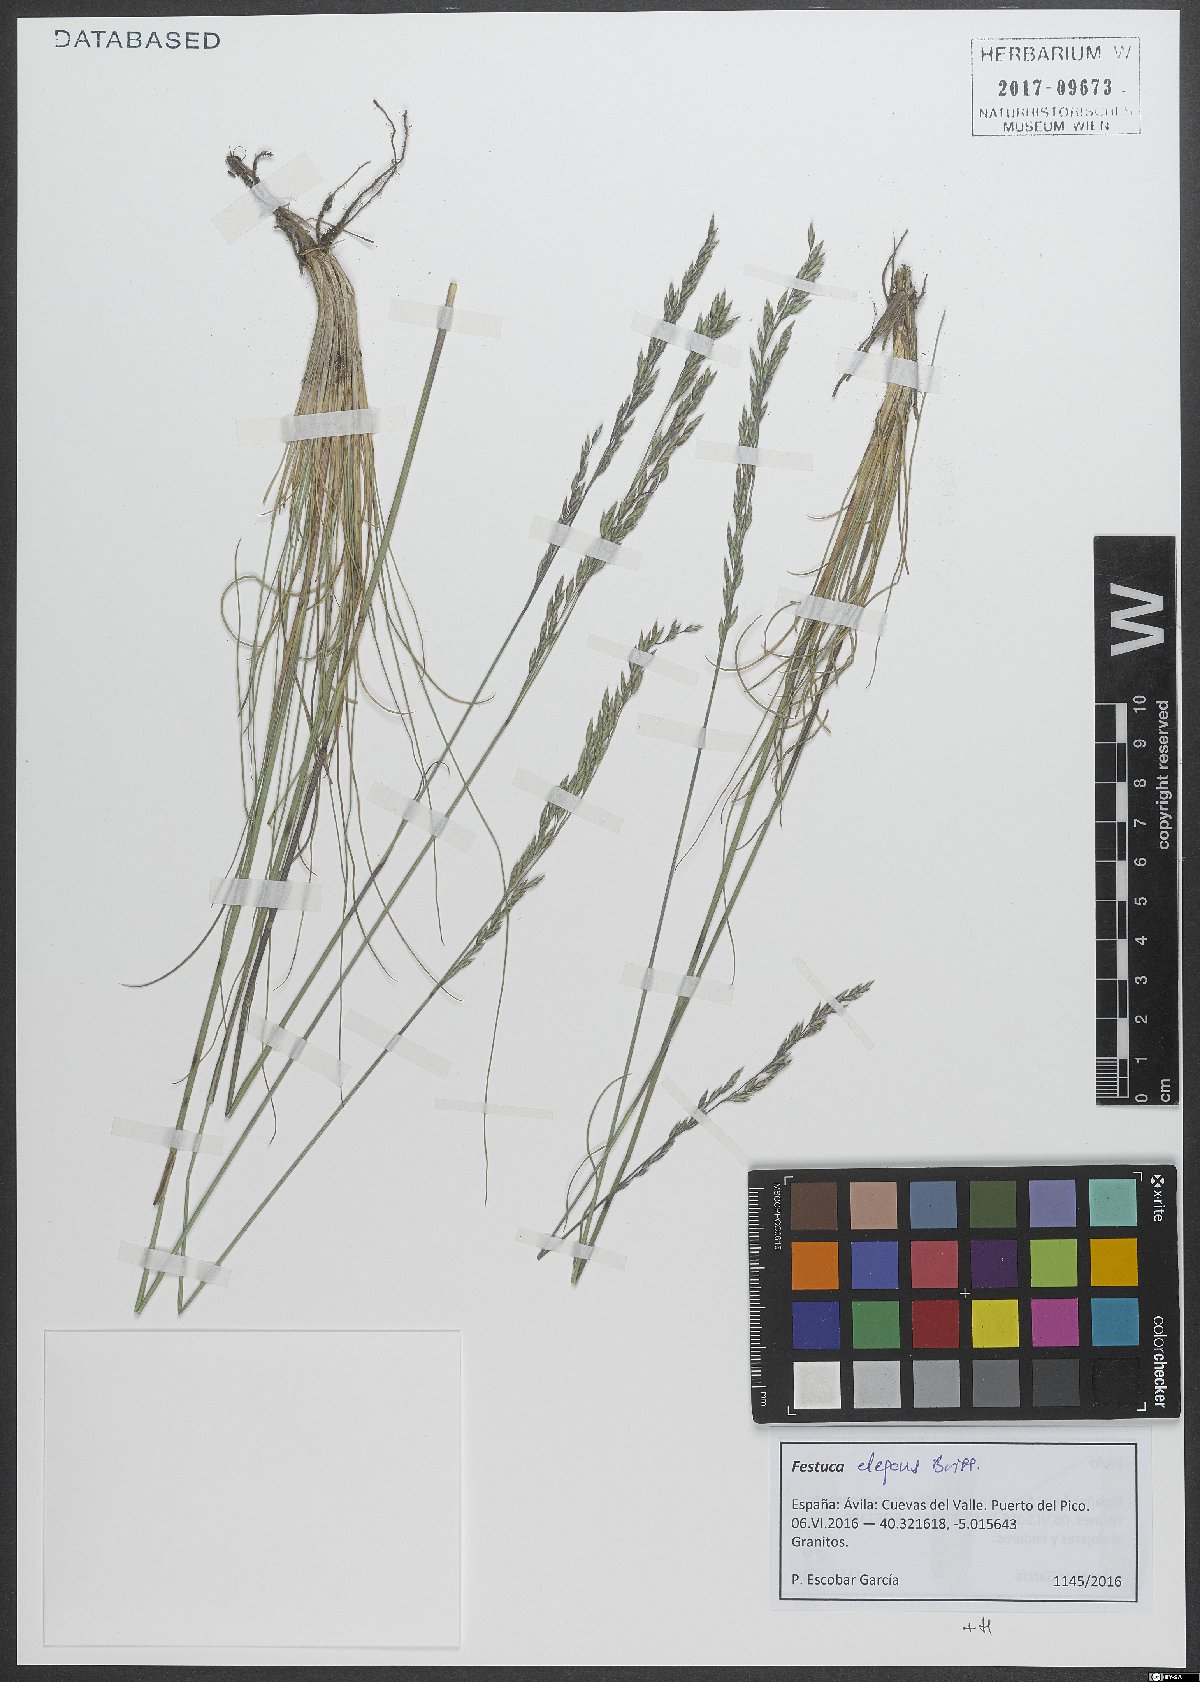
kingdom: Plantae
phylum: Tracheophyta
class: Liliopsida
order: Poales
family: Poaceae
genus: Festuca
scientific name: Festuca elegans
